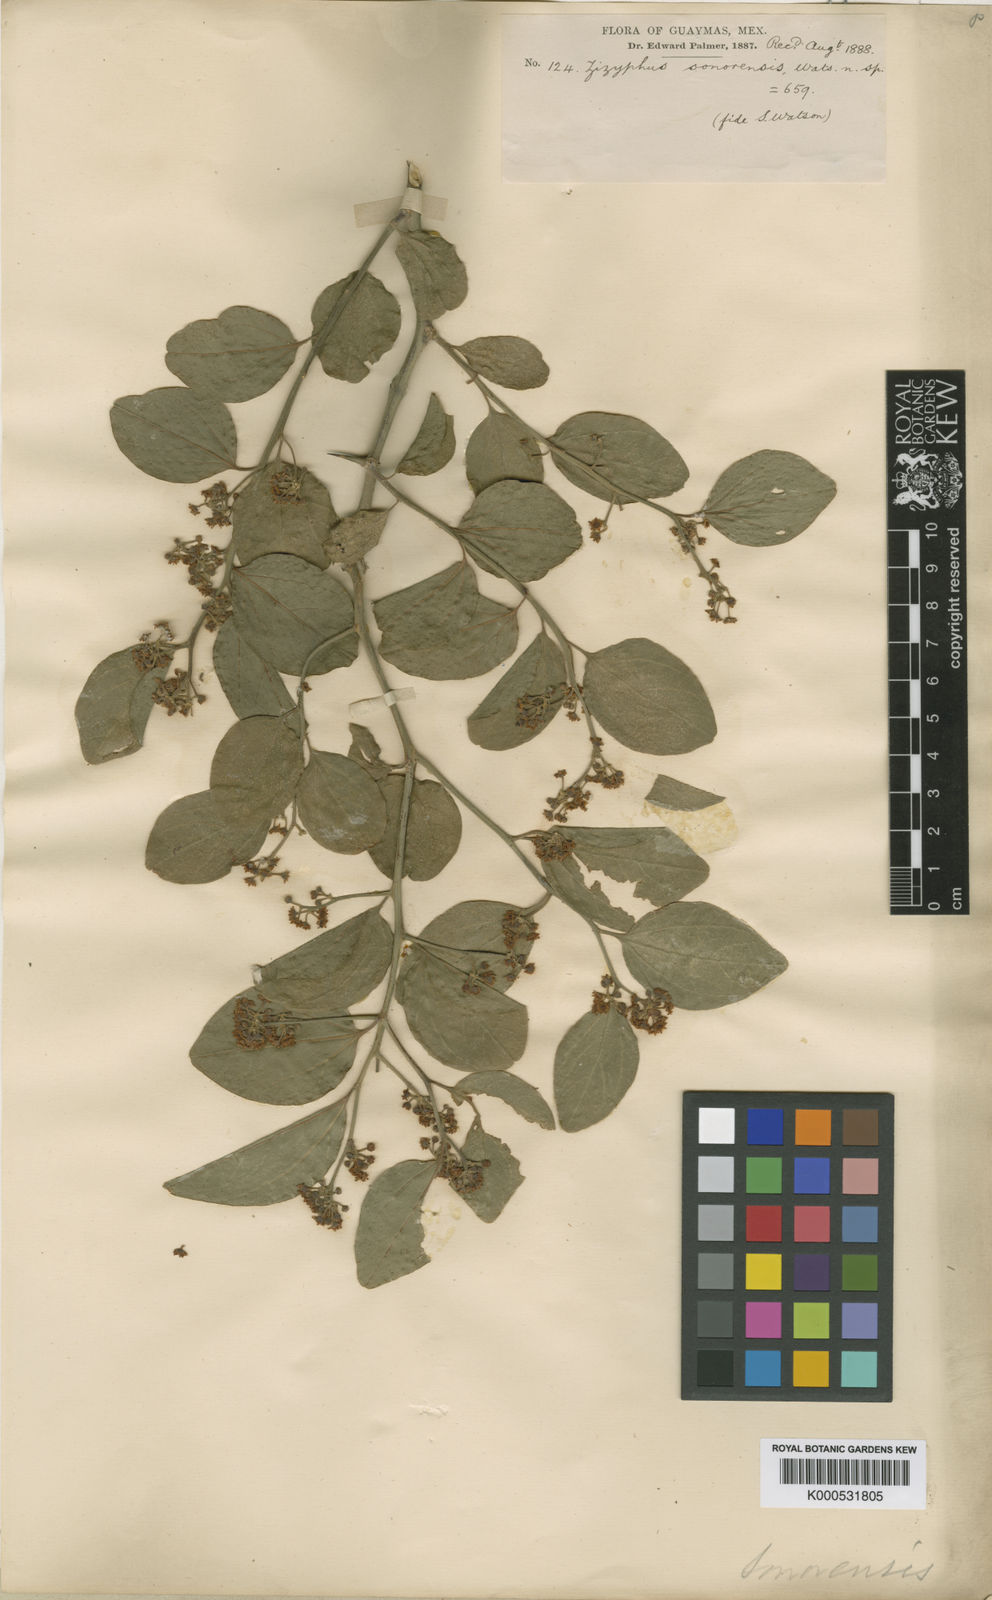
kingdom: Plantae
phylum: Tracheophyta
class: Magnoliopsida
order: Rosales
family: Rhamnaceae
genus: Sarcomphalus
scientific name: Sarcomphalus amole
